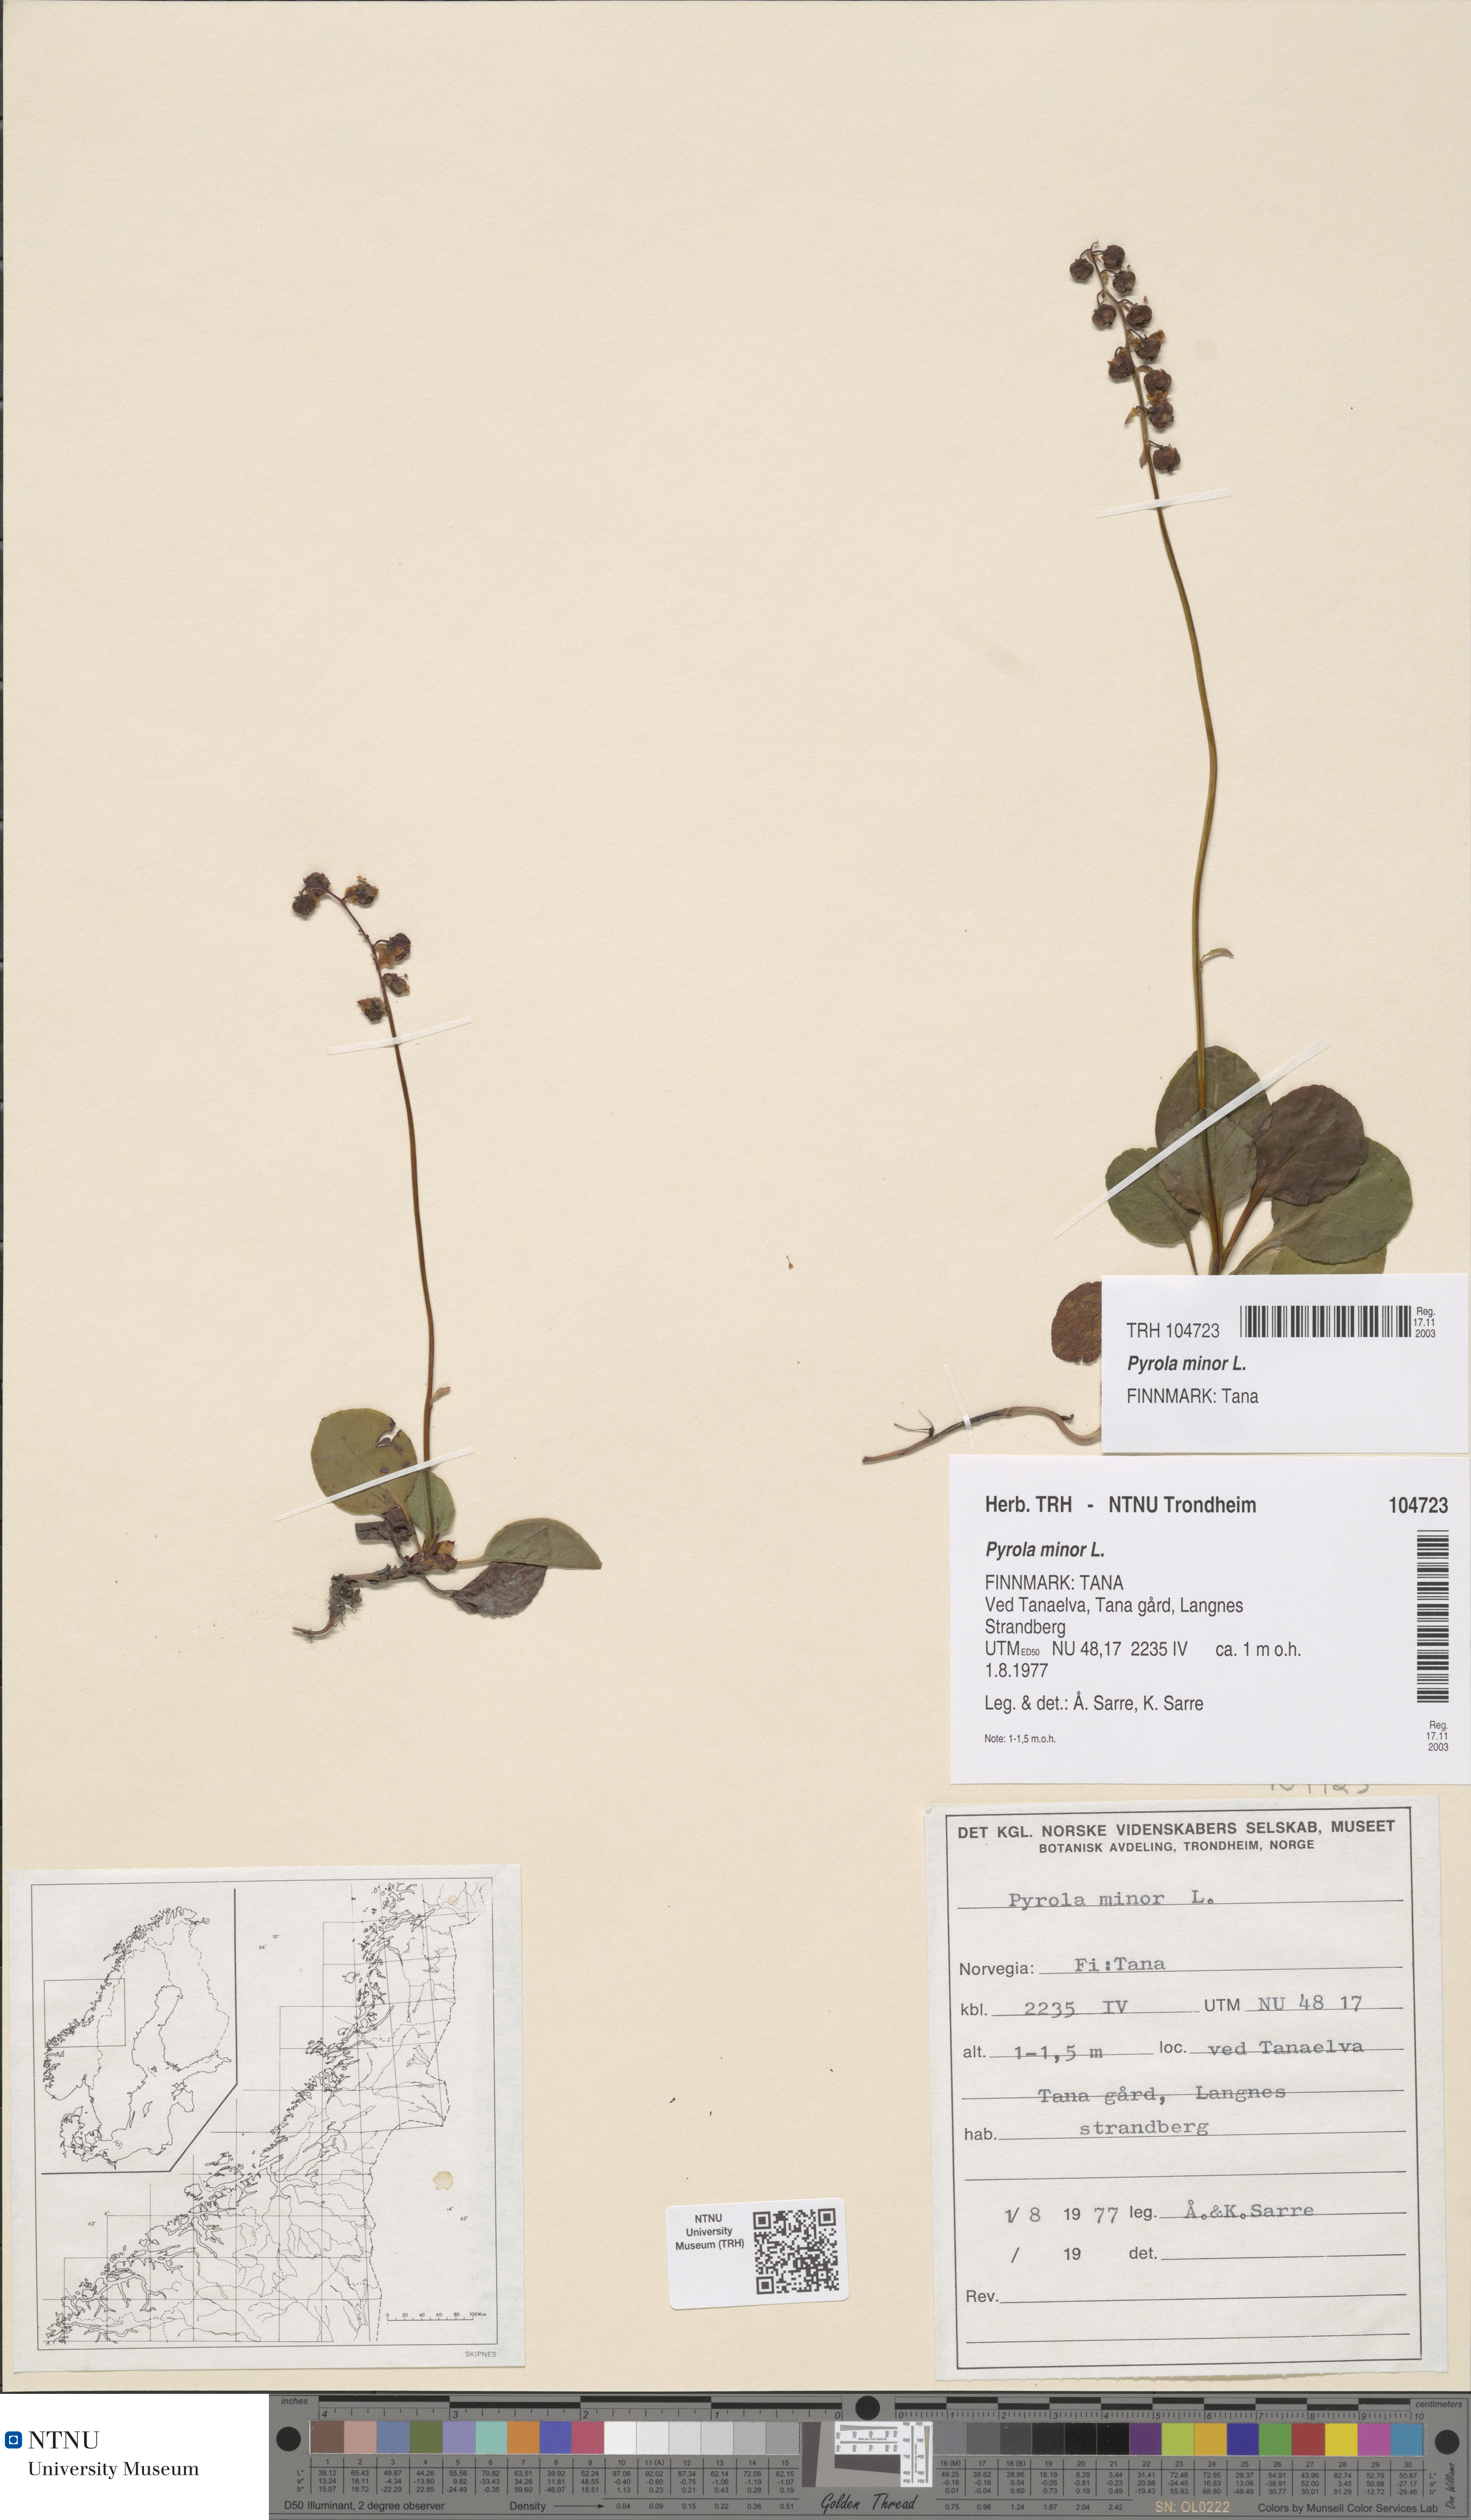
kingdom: Plantae
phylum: Tracheophyta
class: Magnoliopsida
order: Ericales
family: Ericaceae
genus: Pyrola
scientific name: Pyrola minor
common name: Common wintergreen
